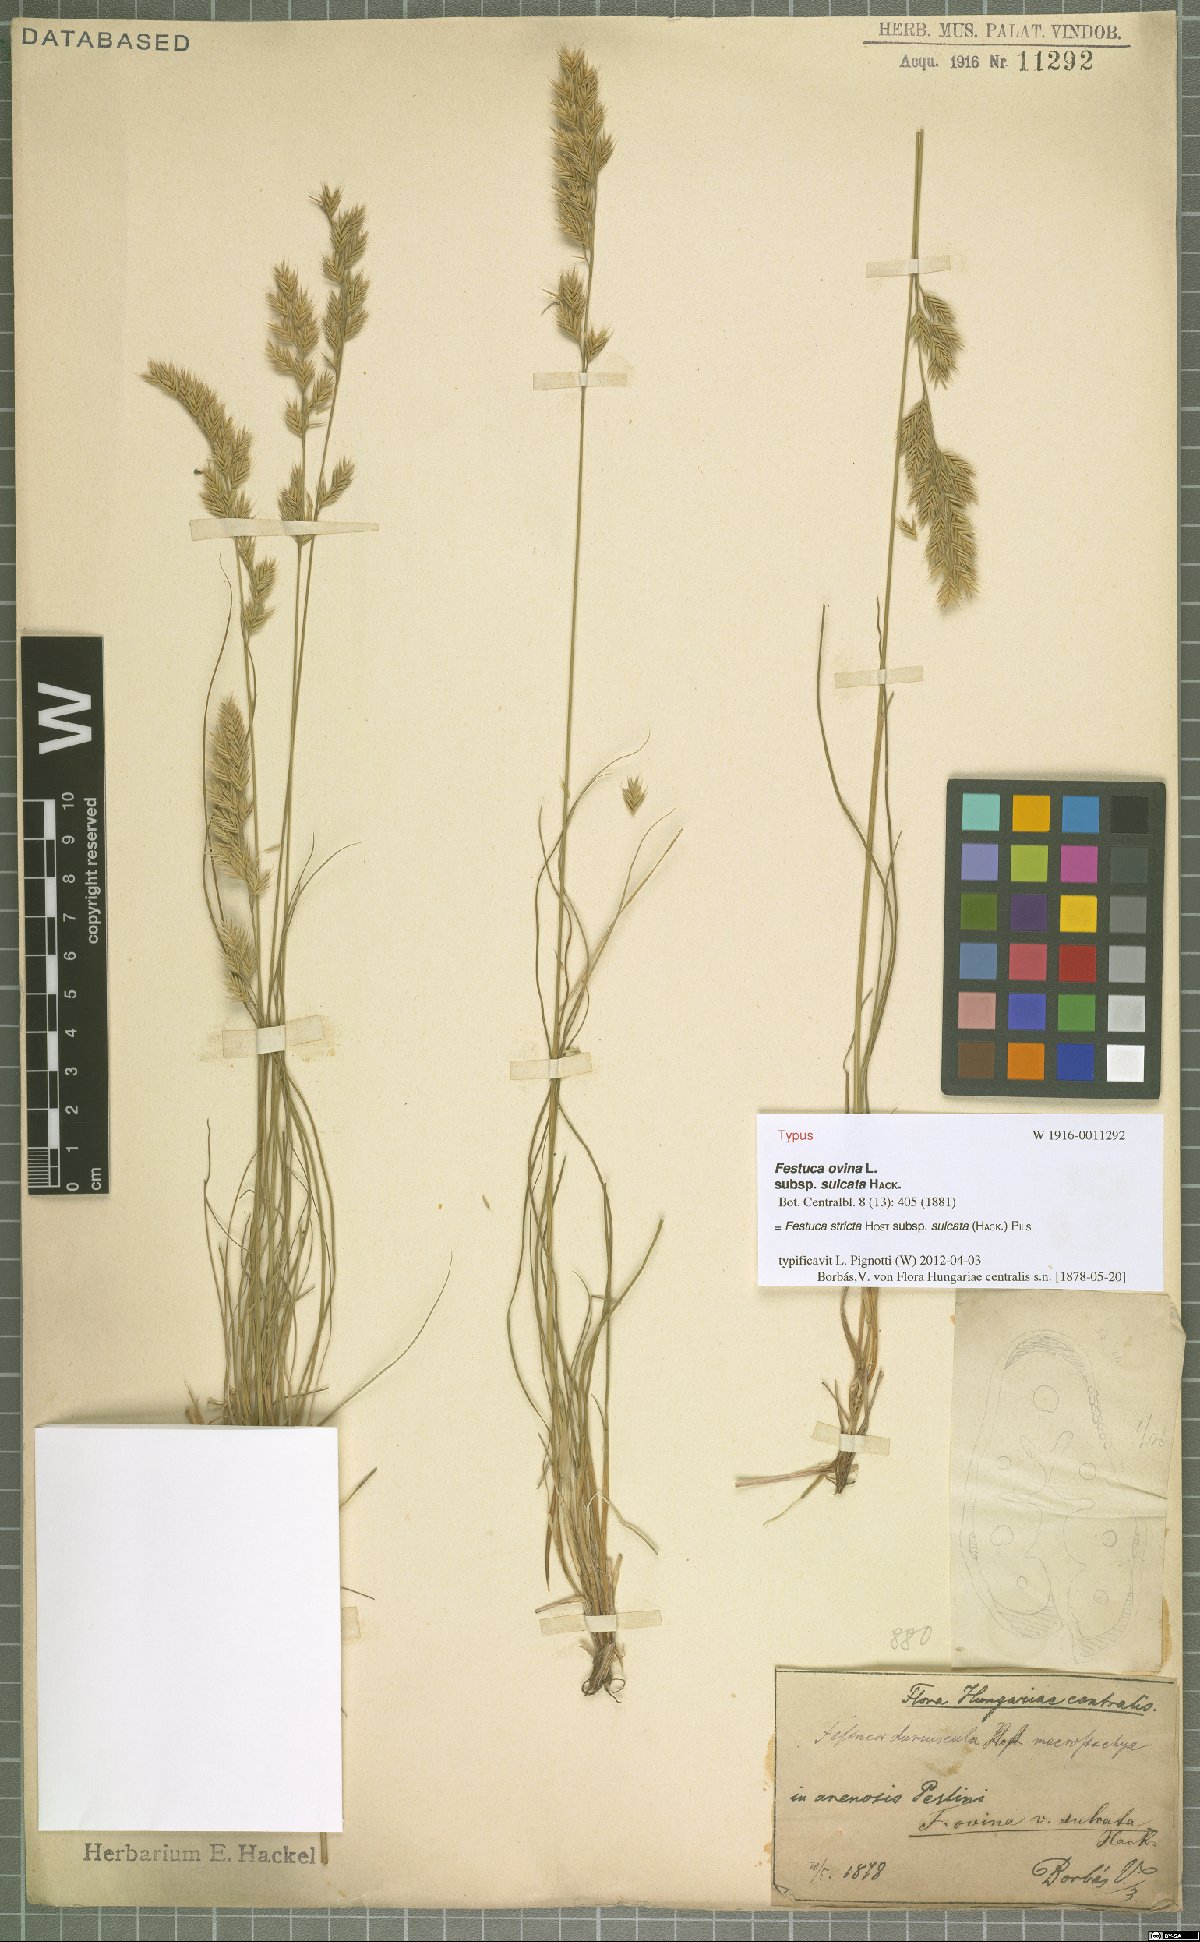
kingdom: Plantae
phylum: Tracheophyta
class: Liliopsida
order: Poales
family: Poaceae
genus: Festuca
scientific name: Festuca rupicola
